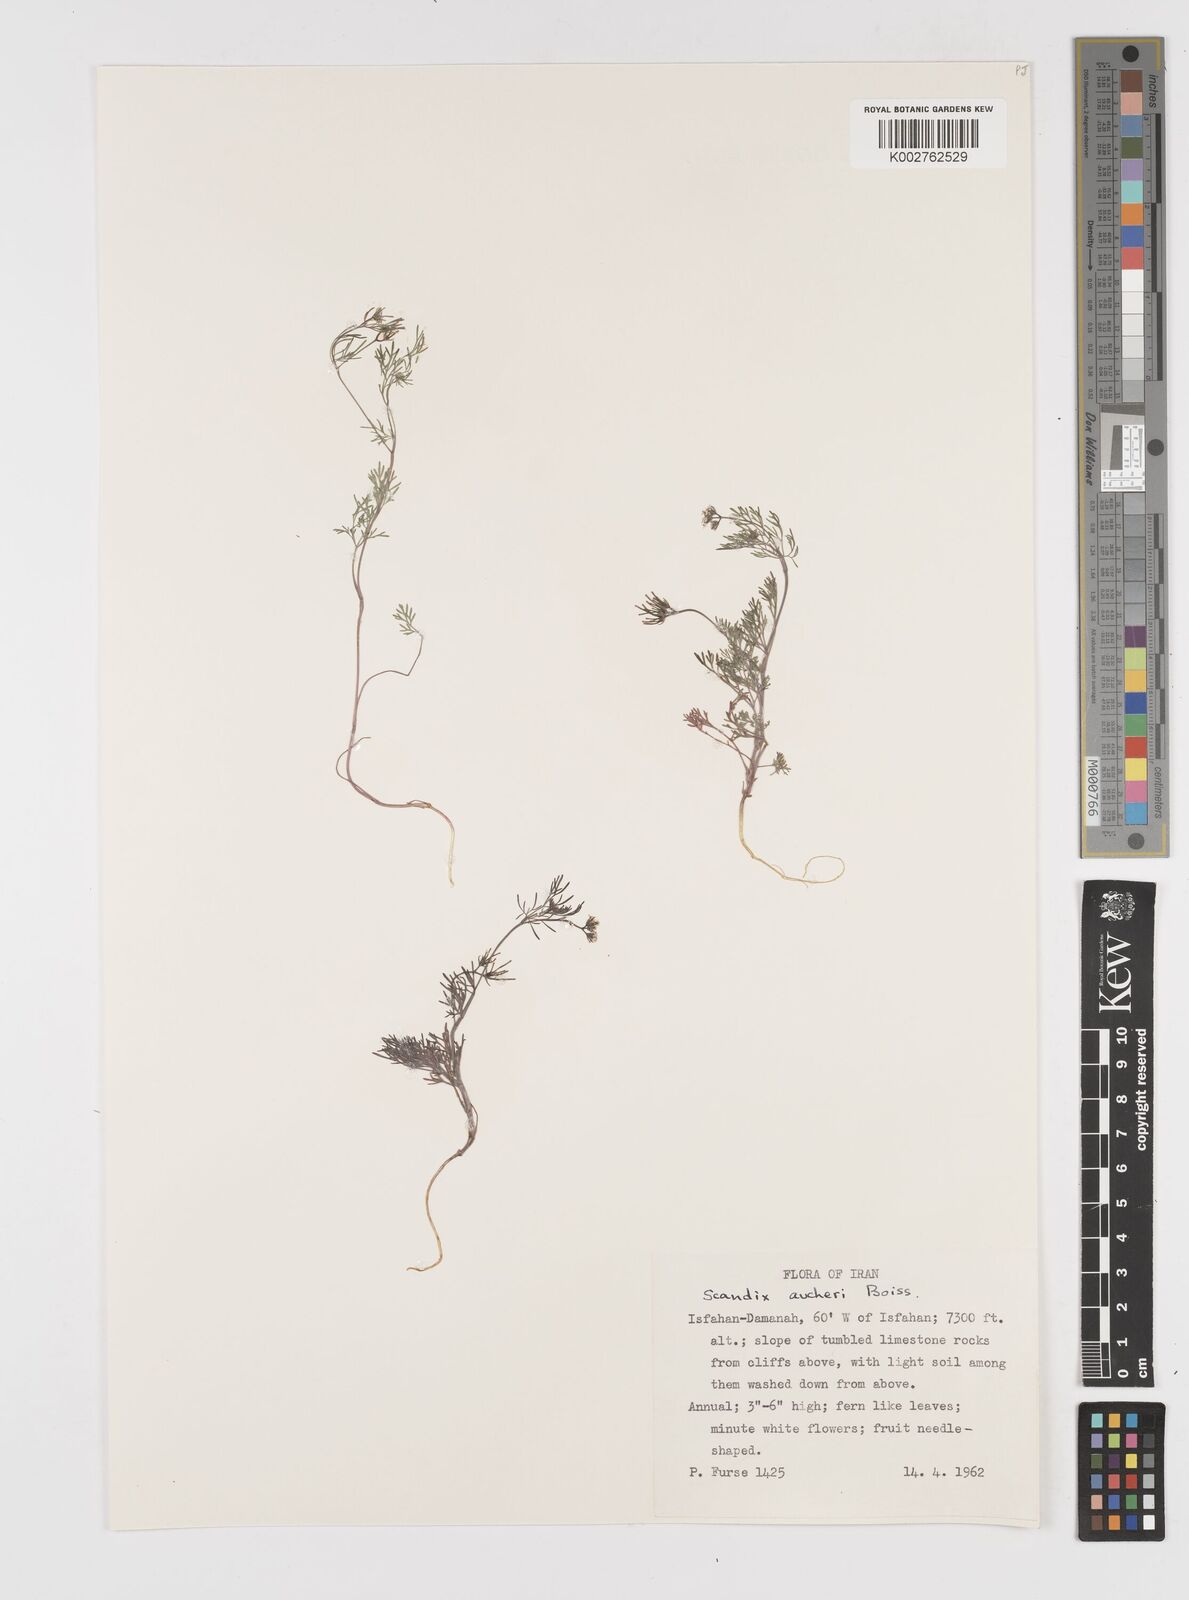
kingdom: Plantae
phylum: Tracheophyta
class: Magnoliopsida
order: Apiales
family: Apiaceae
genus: Scandix
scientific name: Scandix aucheri
